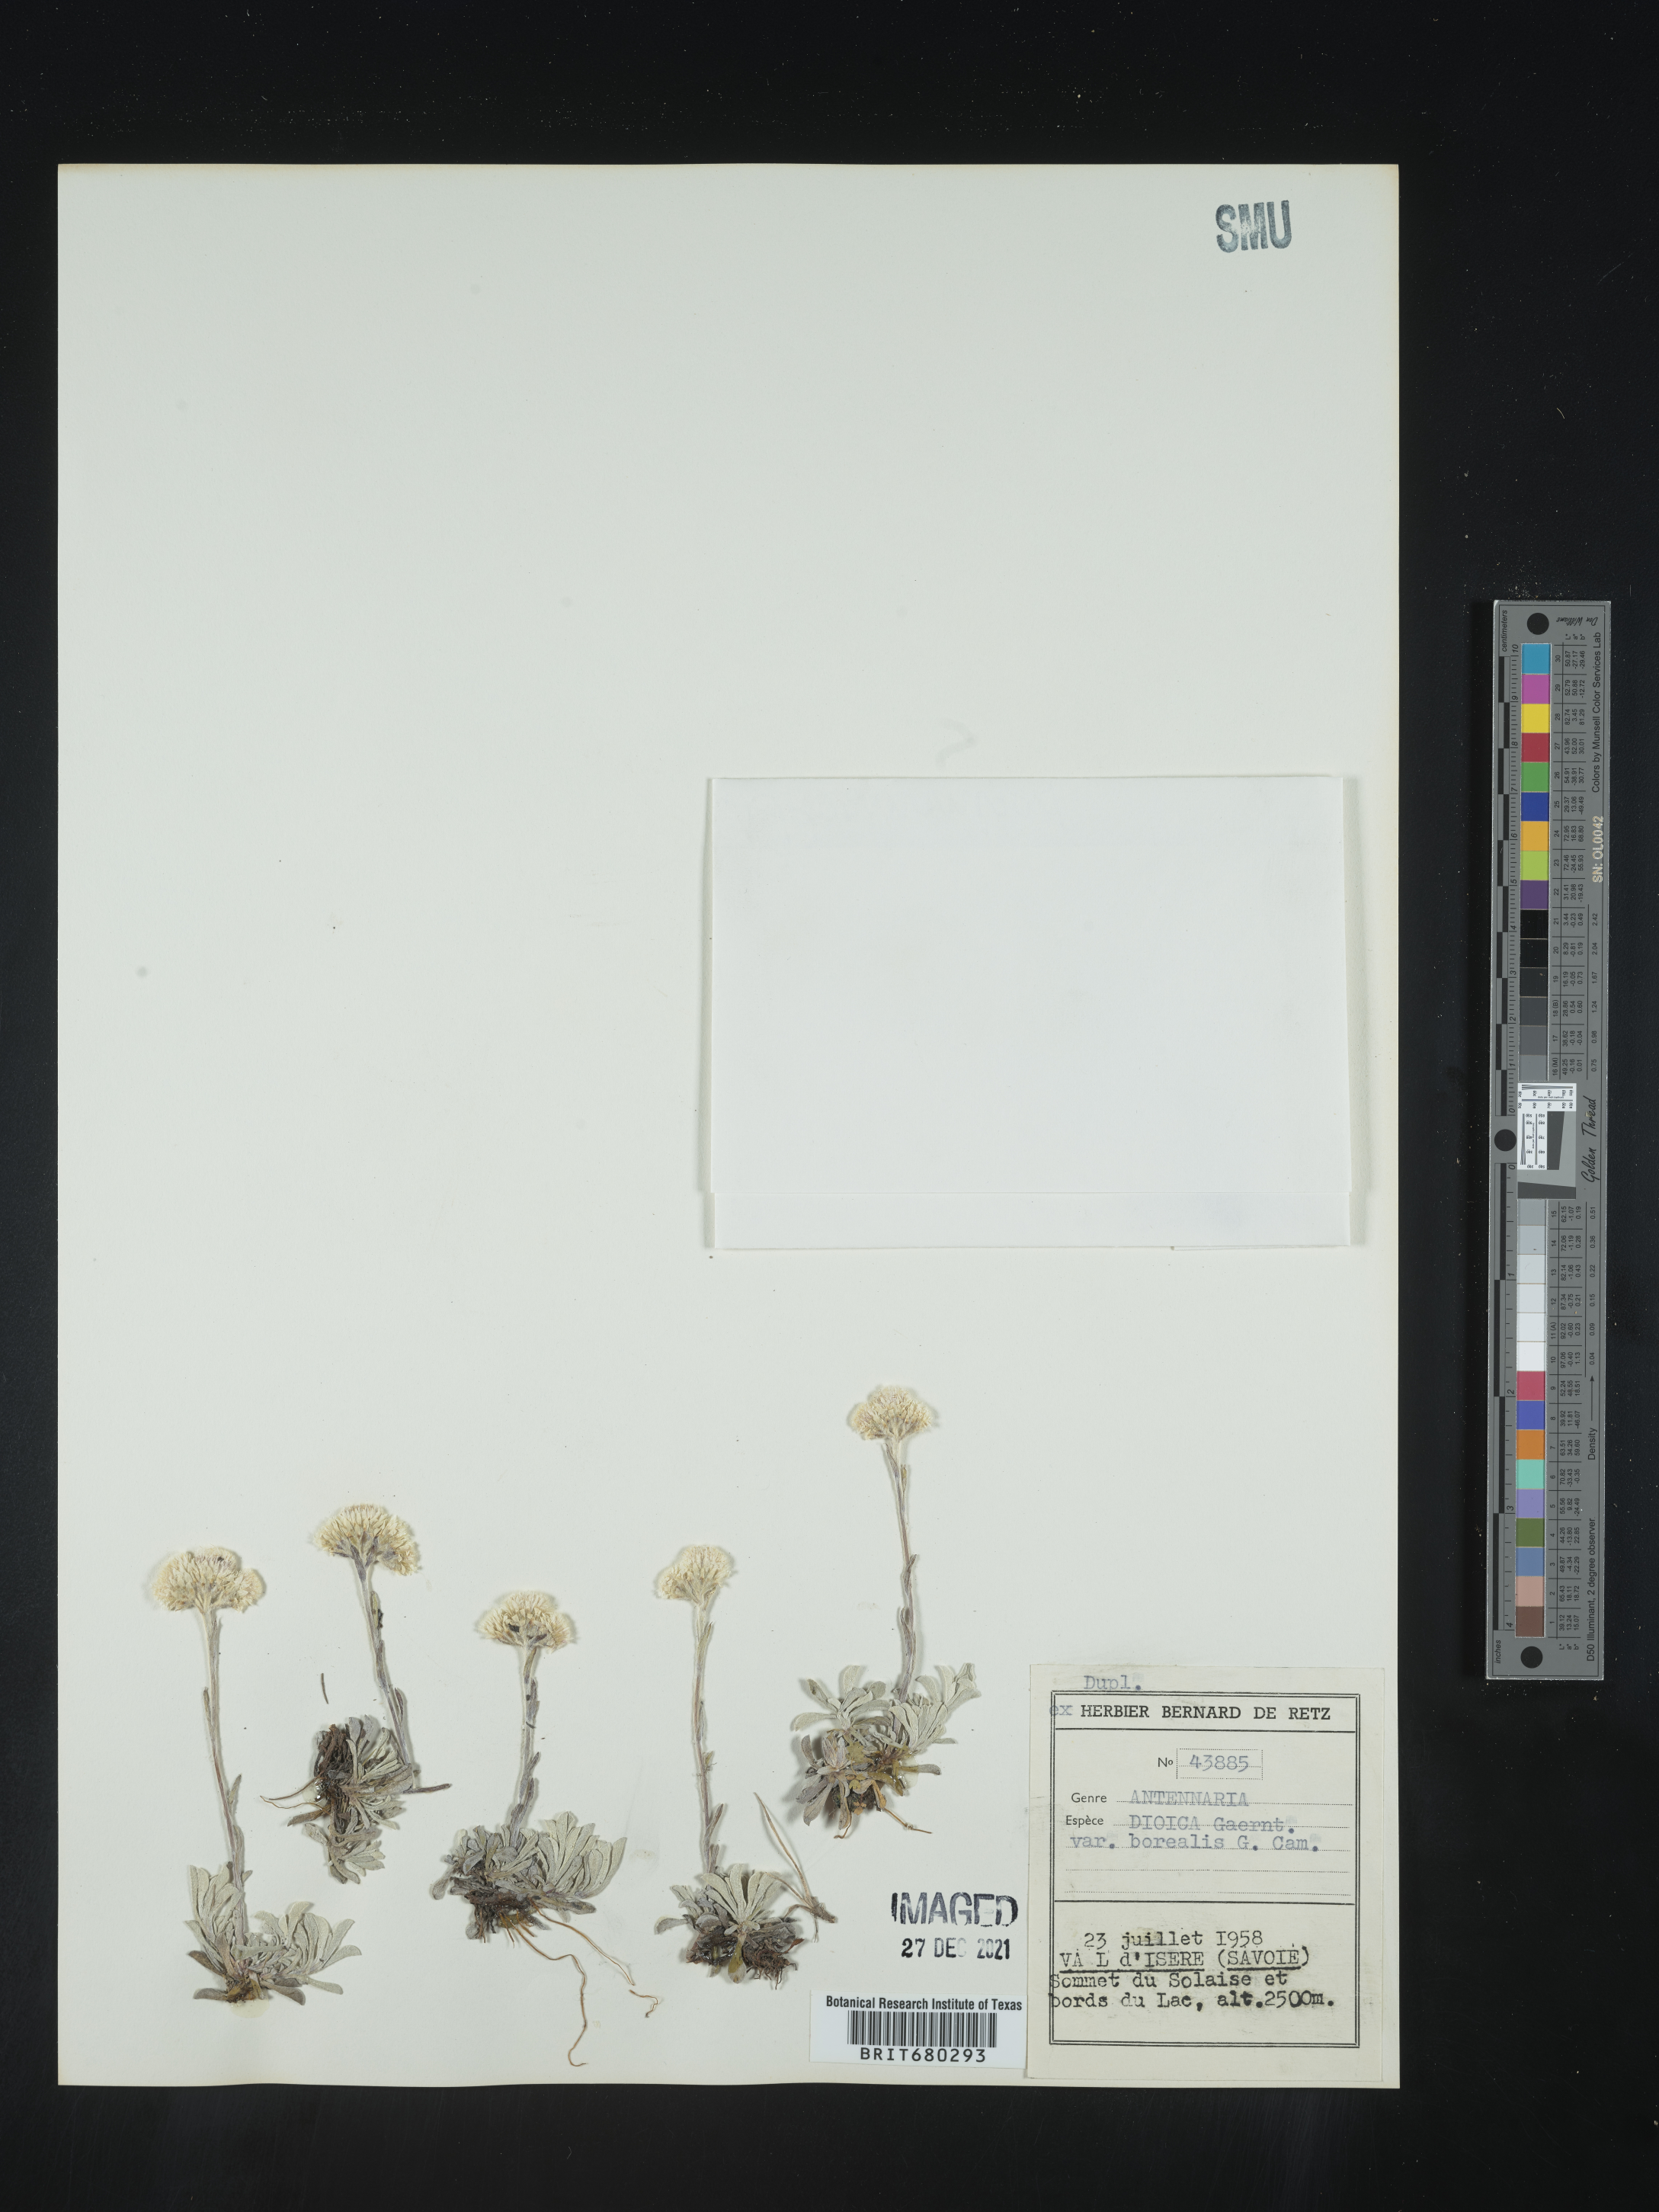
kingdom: Plantae
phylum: Tracheophyta
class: Magnoliopsida
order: Asterales
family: Asteraceae
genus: Antennaria
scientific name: Antennaria dioica
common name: Mountain everlasting
